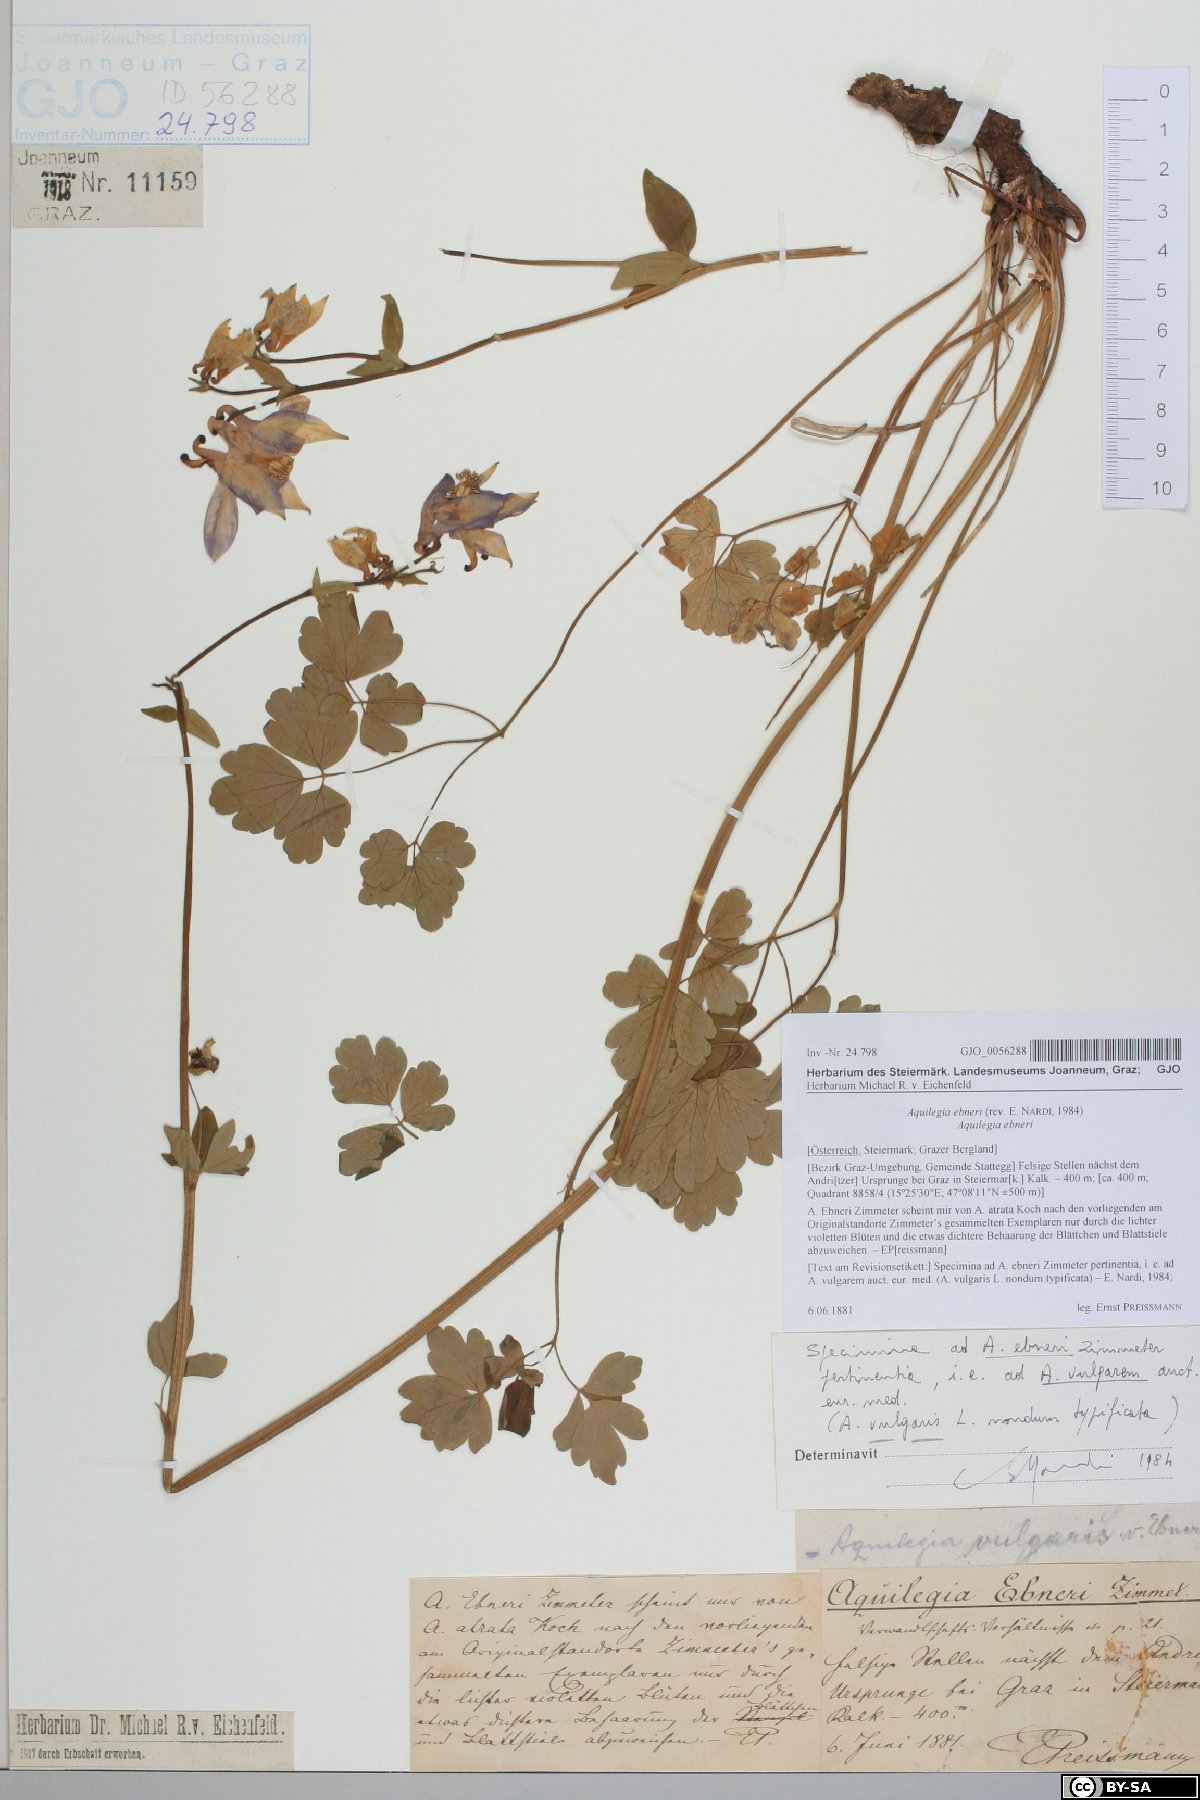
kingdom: Plantae
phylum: Tracheophyta
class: Magnoliopsida
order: Ranunculales
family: Ranunculaceae
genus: Aquilegia
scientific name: Aquilegia vulgaris
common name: Columbine
